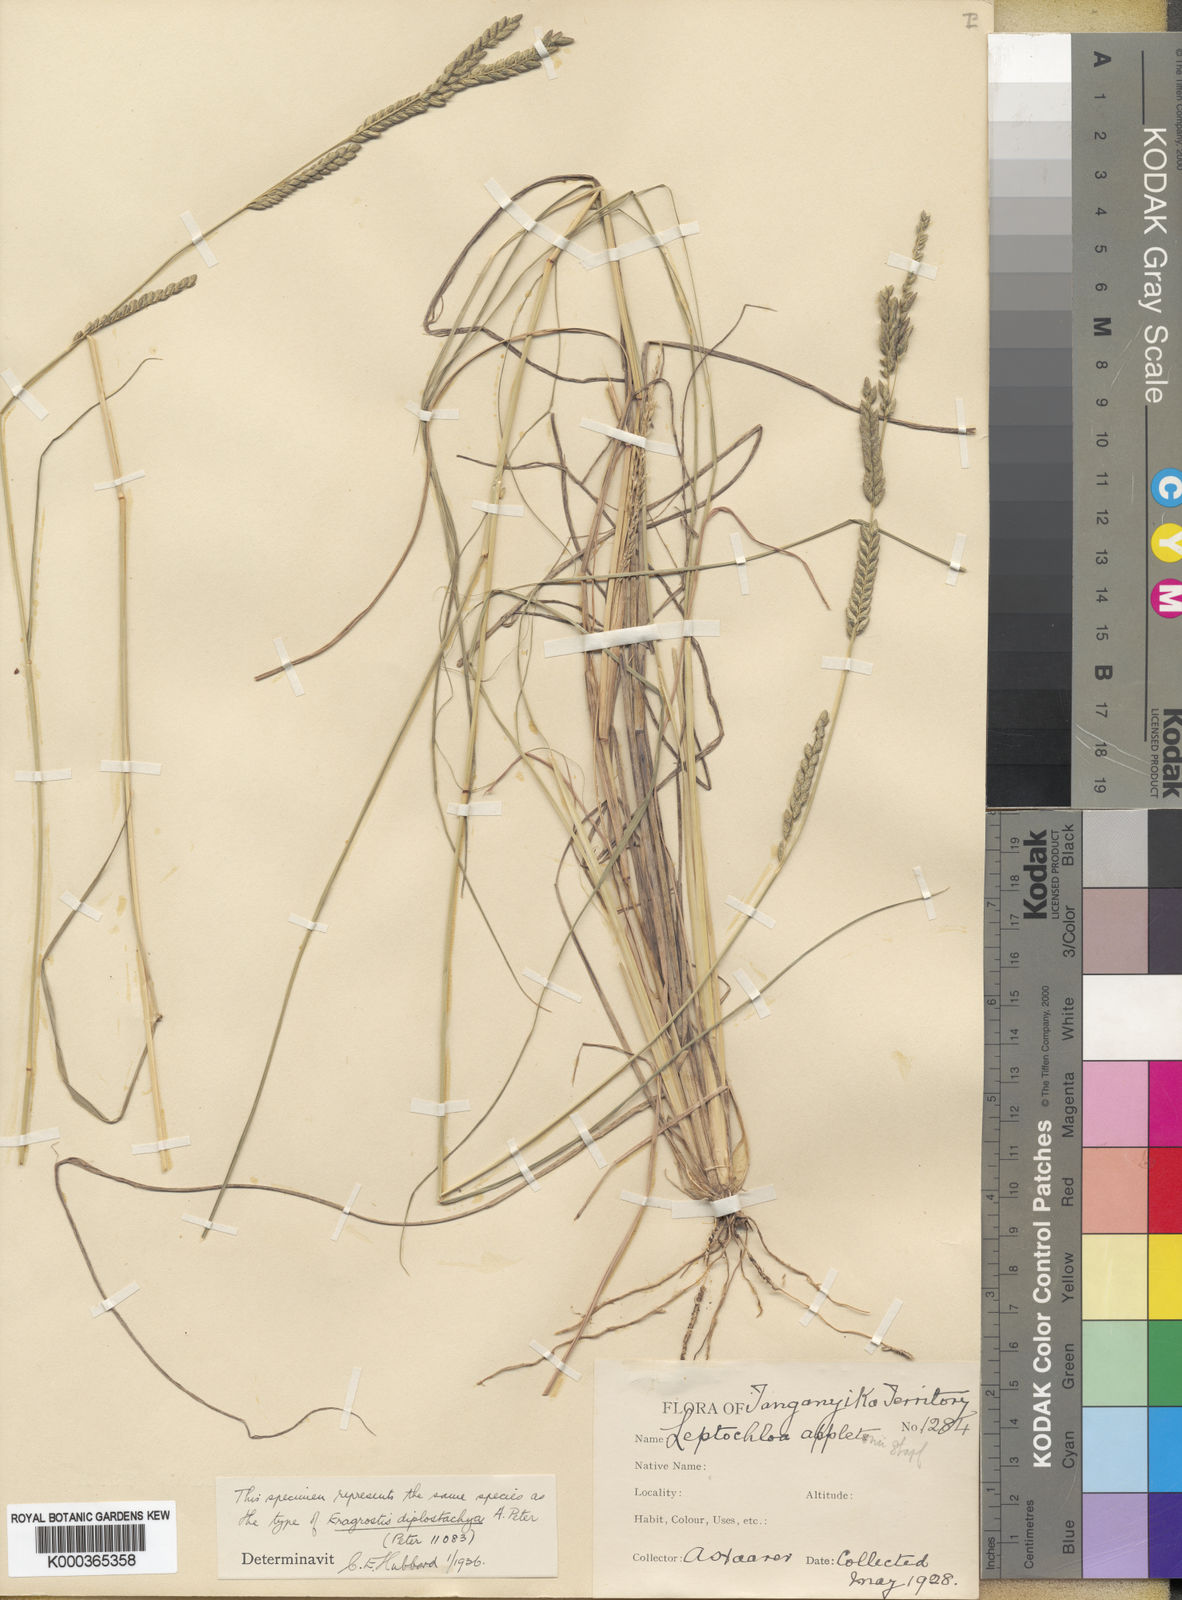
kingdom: Plantae
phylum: Tracheophyta
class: Liliopsida
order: Poales
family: Poaceae
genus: Disakisperma
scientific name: Disakisperma yemenicum
